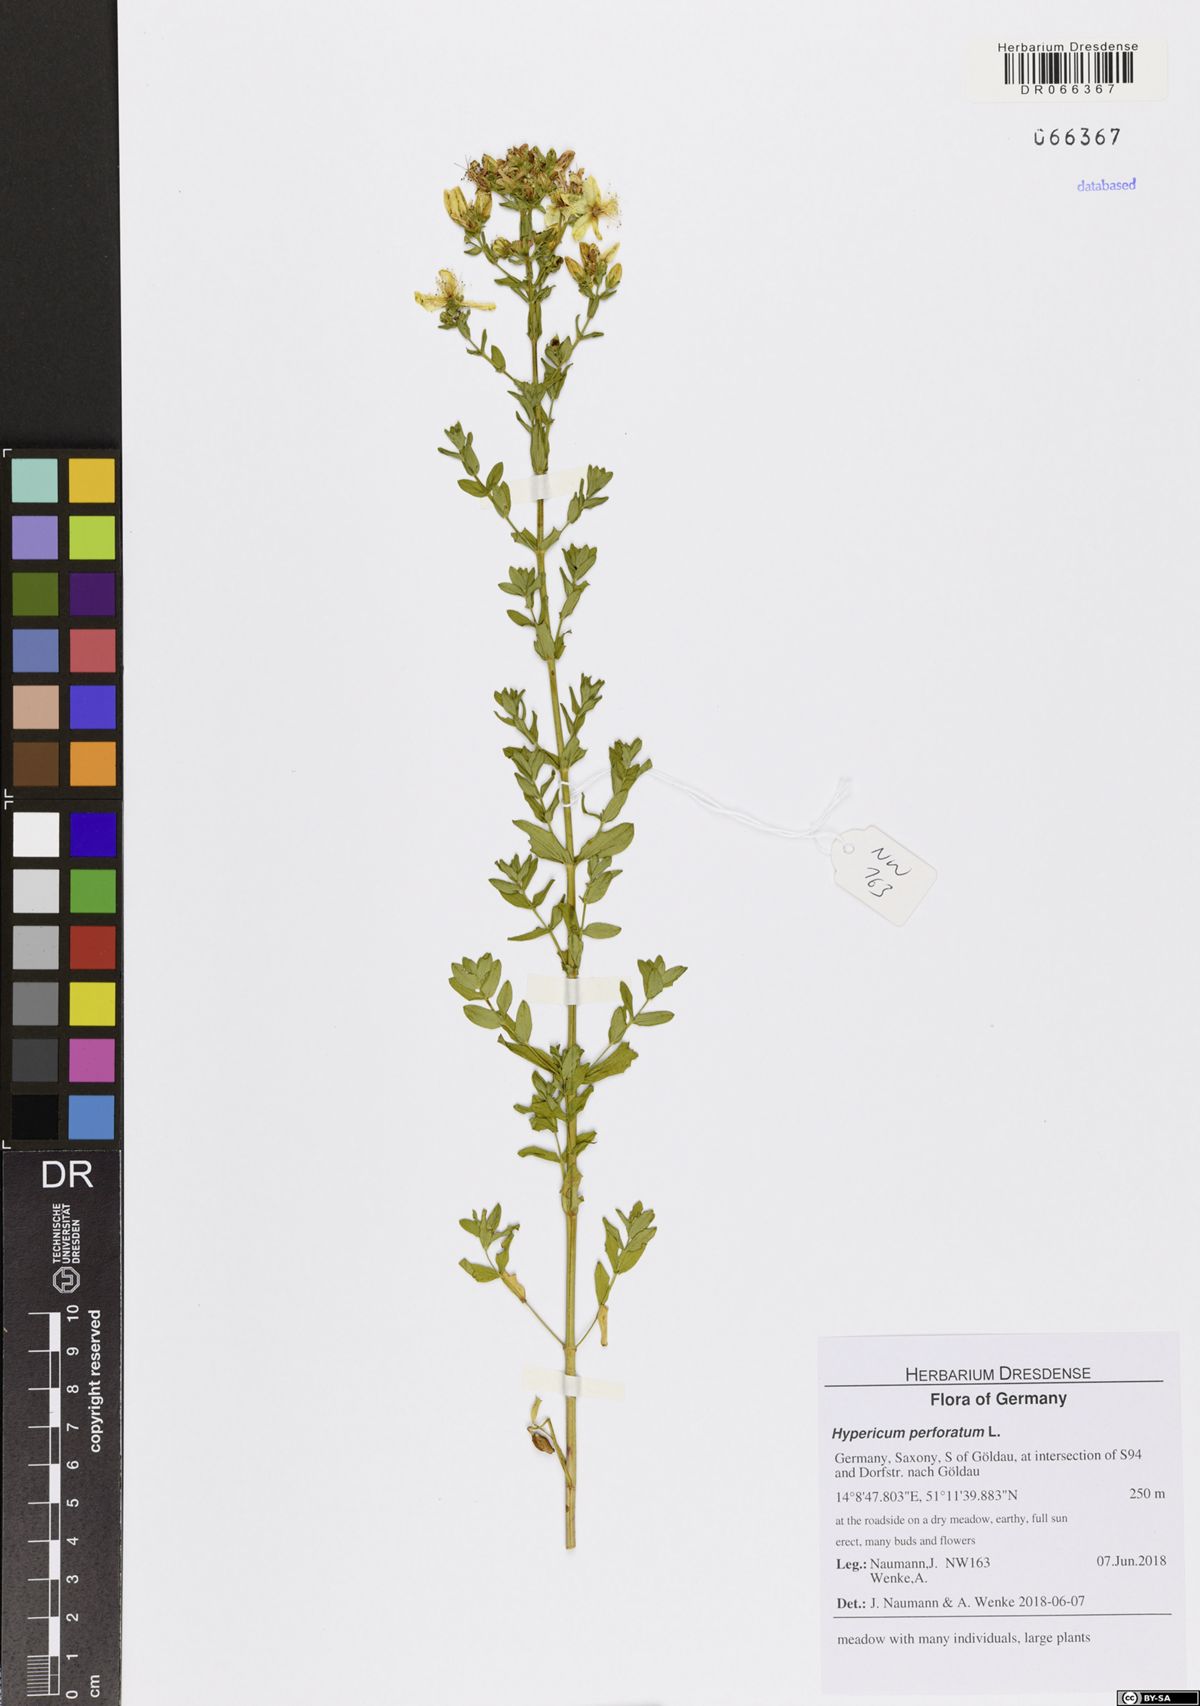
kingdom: Plantae
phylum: Tracheophyta
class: Magnoliopsida
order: Malpighiales
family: Hypericaceae
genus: Hypericum
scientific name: Hypericum perforatum
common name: Common st. johnswort
